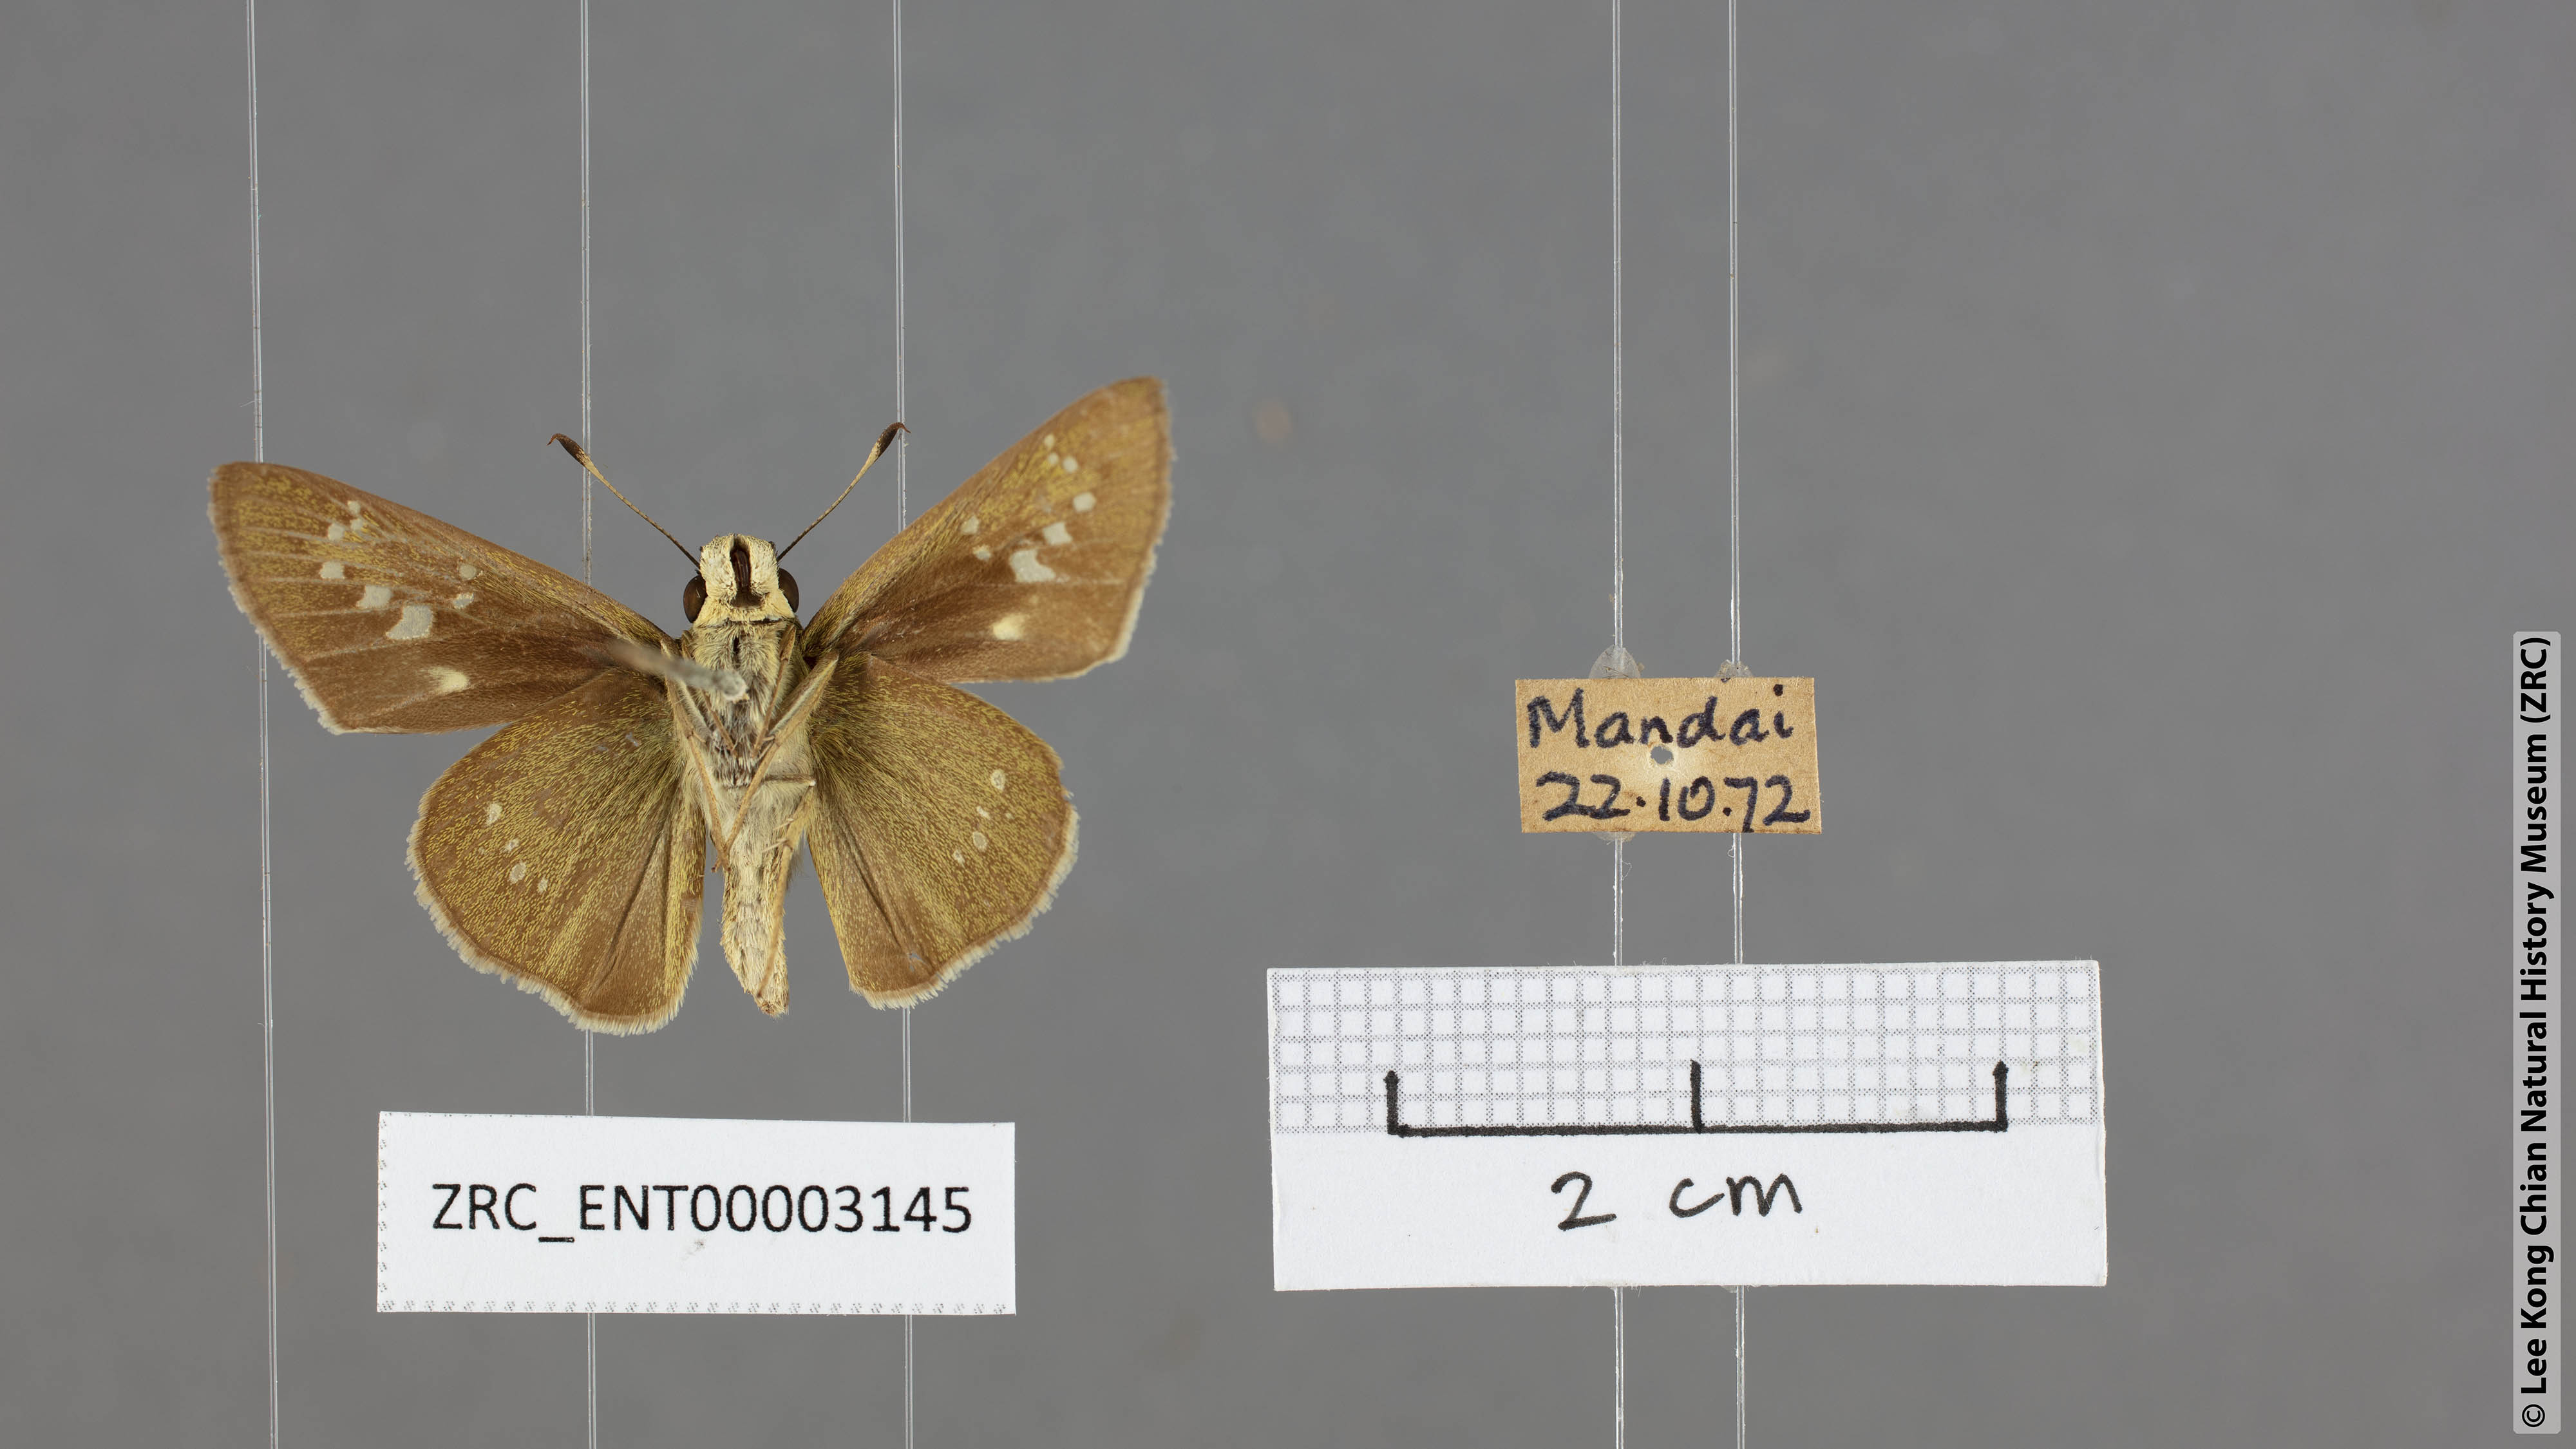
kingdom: Animalia
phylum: Arthropoda
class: Insecta
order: Lepidoptera
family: Hesperiidae
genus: Borbo
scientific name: Borbo cinnara
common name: Formosan swift
